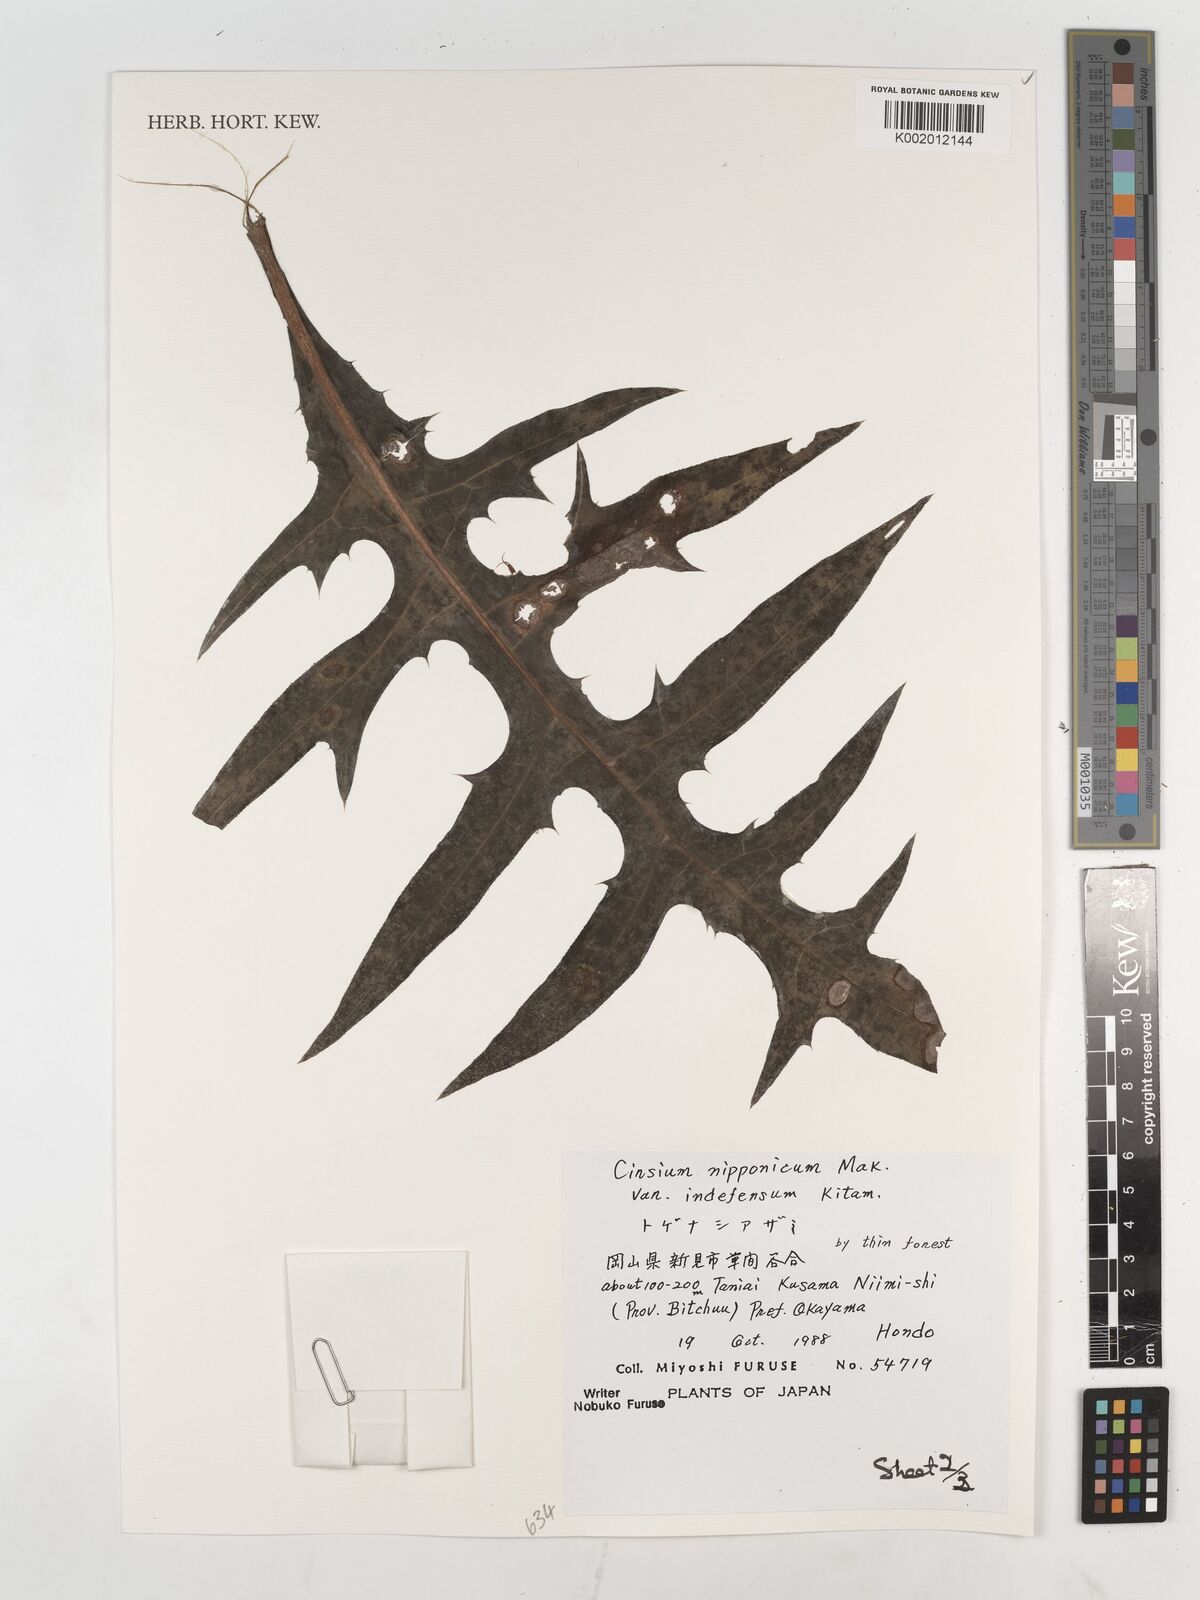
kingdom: Plantae
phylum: Tracheophyta
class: Magnoliopsida
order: Asterales
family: Asteraceae
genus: Cirsium
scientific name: Cirsium nipponicum
